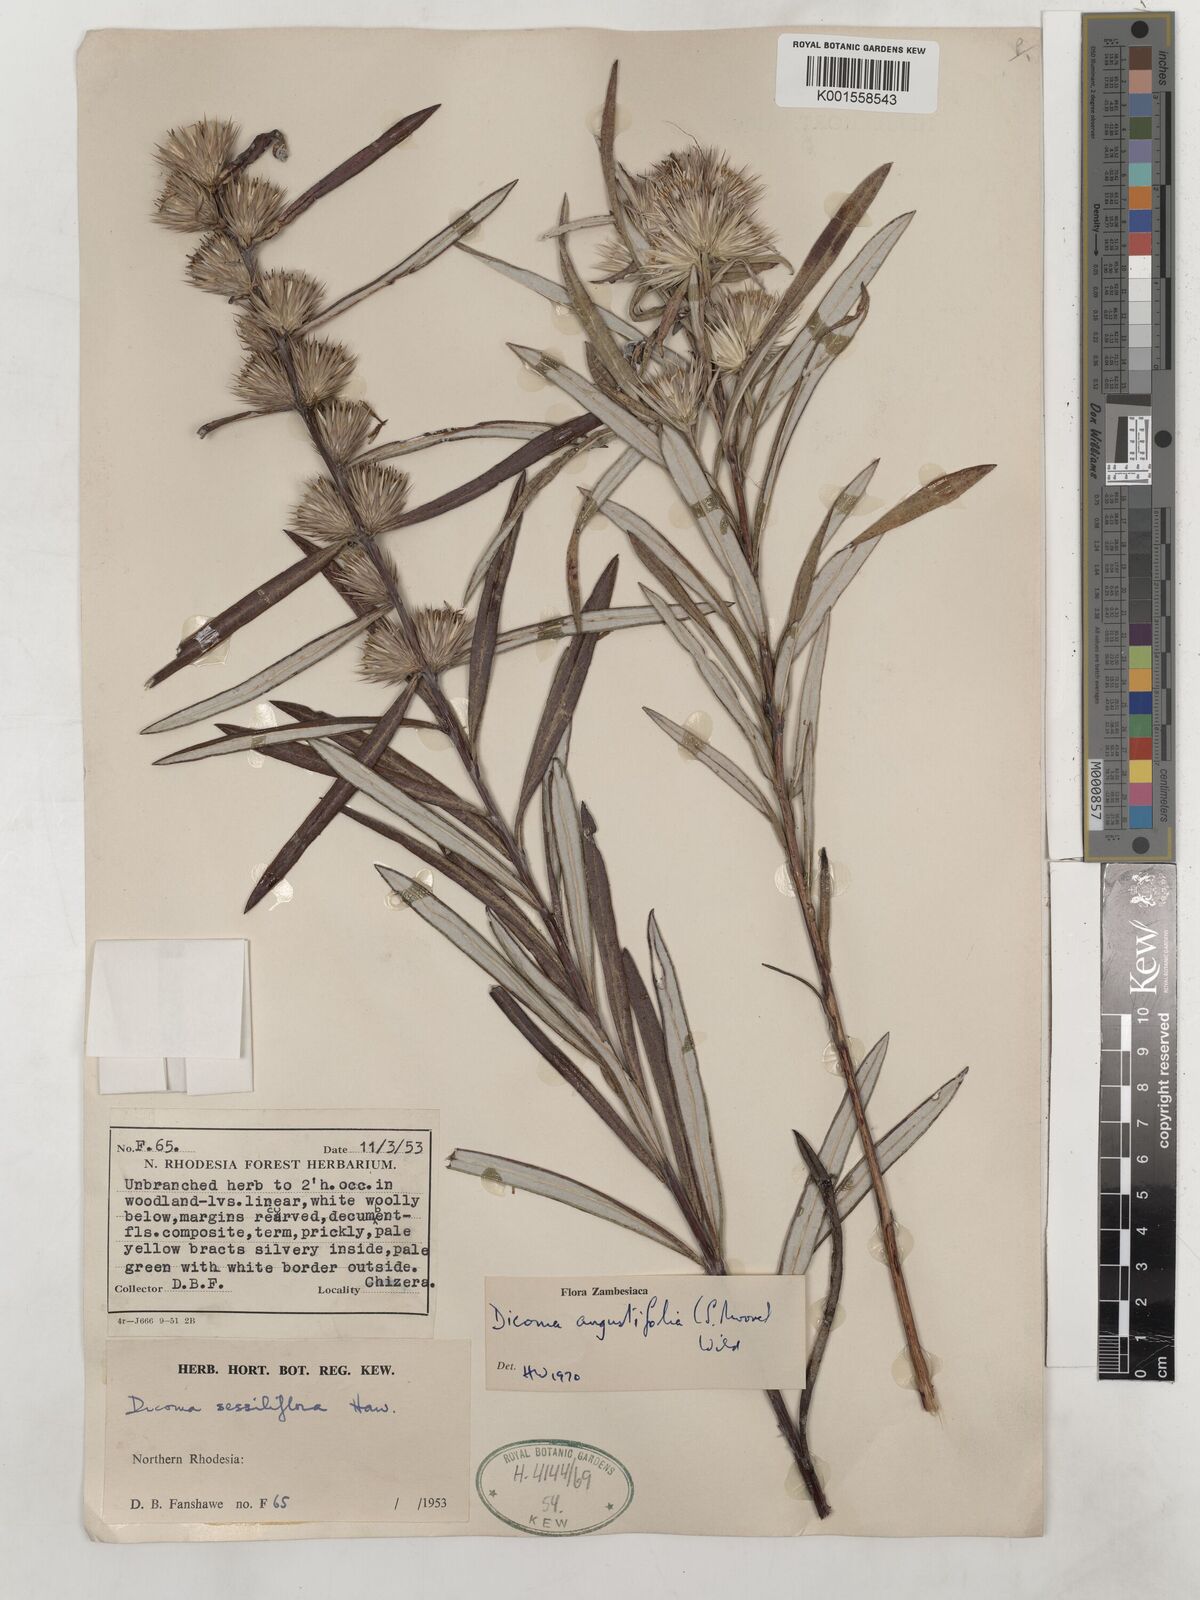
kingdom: Plantae
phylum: Tracheophyta
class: Magnoliopsida
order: Asterales
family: Asteraceae
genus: Macledium
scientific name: Macledium poggei
